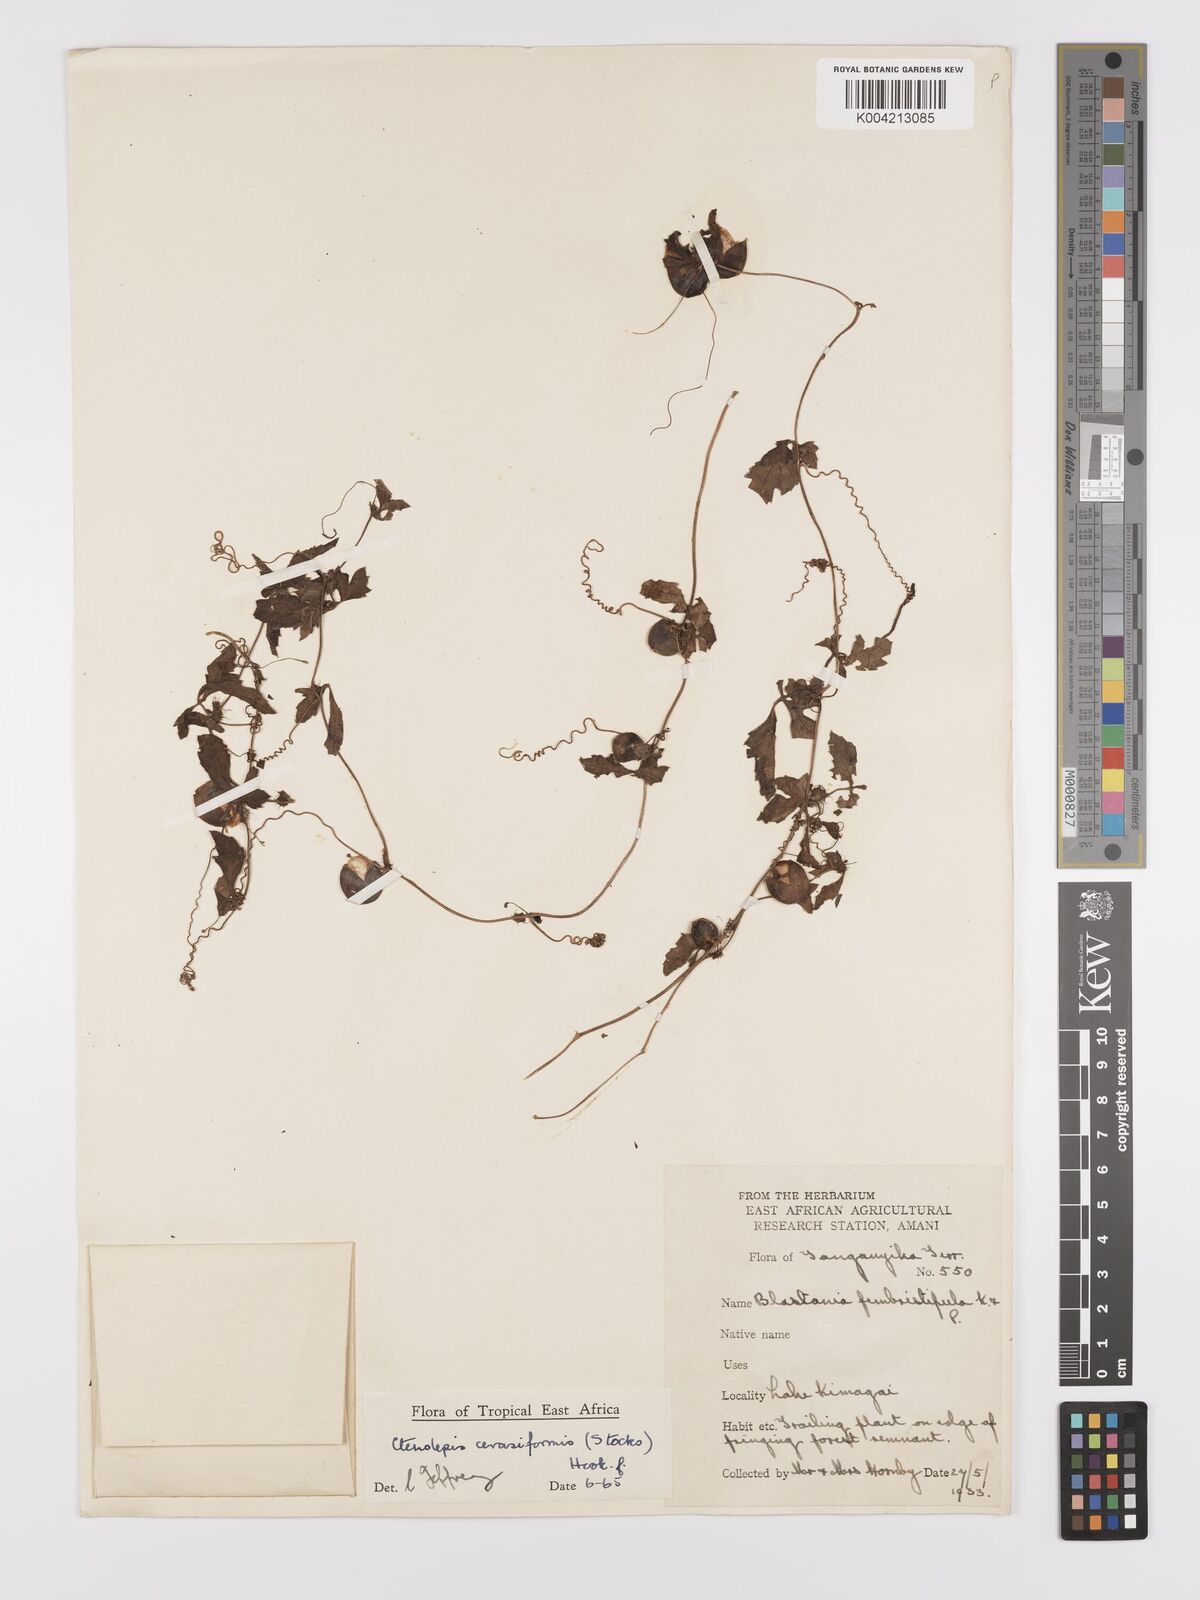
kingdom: Plantae
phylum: Tracheophyta
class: Magnoliopsida
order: Cucurbitales
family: Cucurbitaceae
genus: Blastania
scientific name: Blastania
